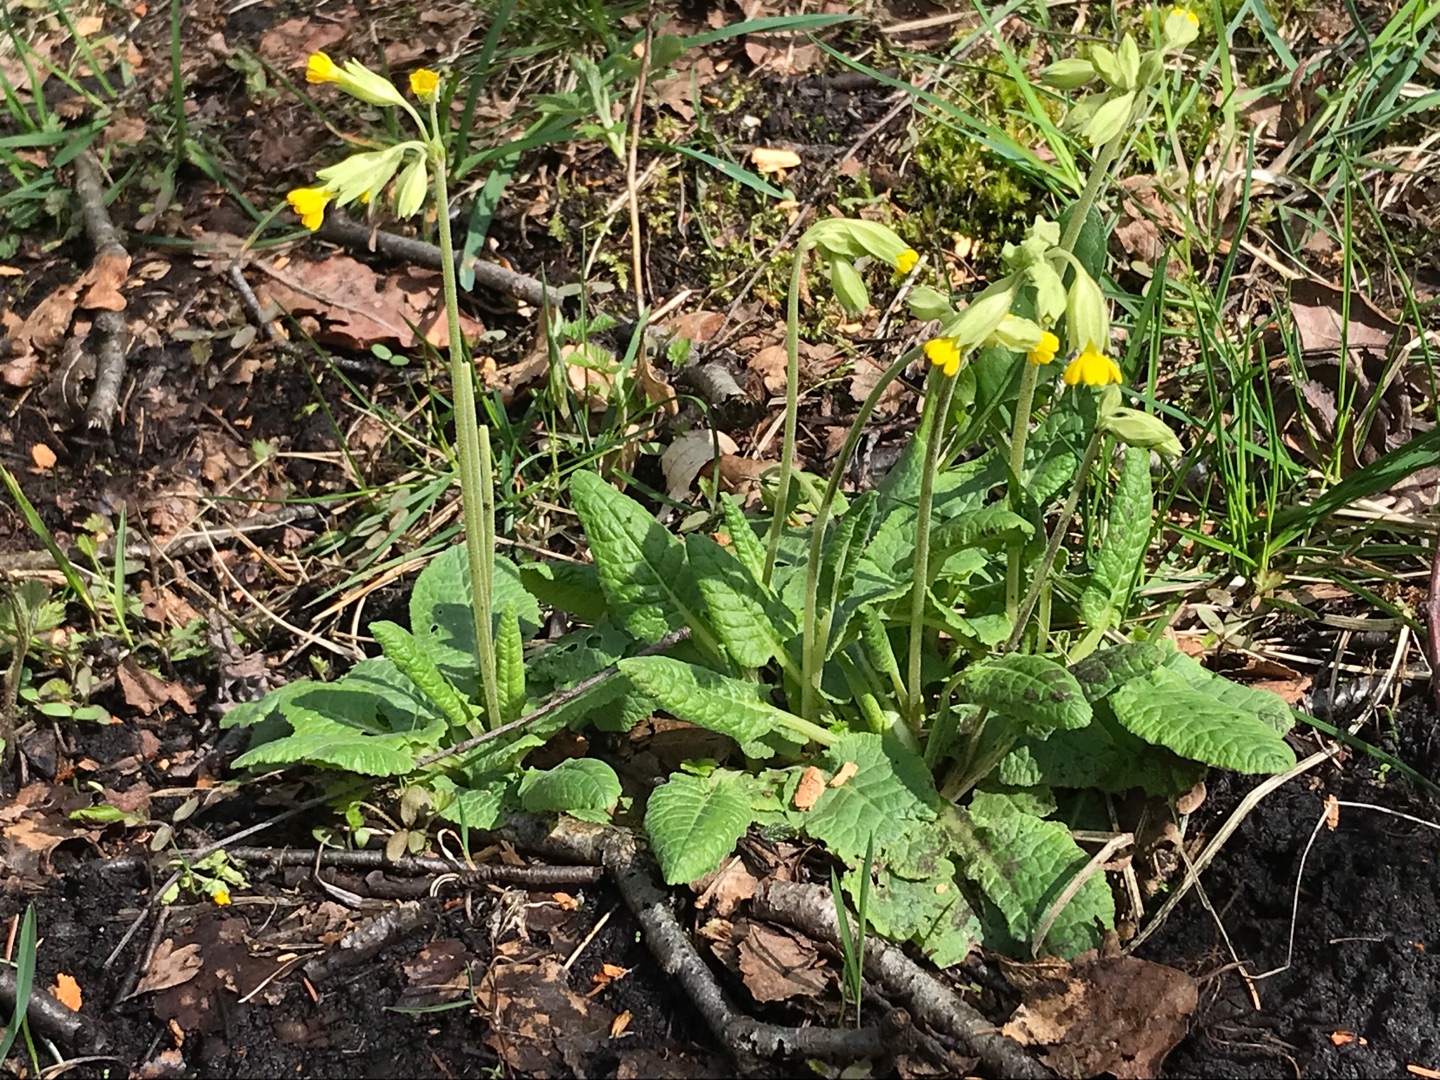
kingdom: Plantae
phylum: Tracheophyta
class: Magnoliopsida
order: Ericales
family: Primulaceae
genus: Primula
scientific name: Primula veris
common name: Hulkravet kodriver
